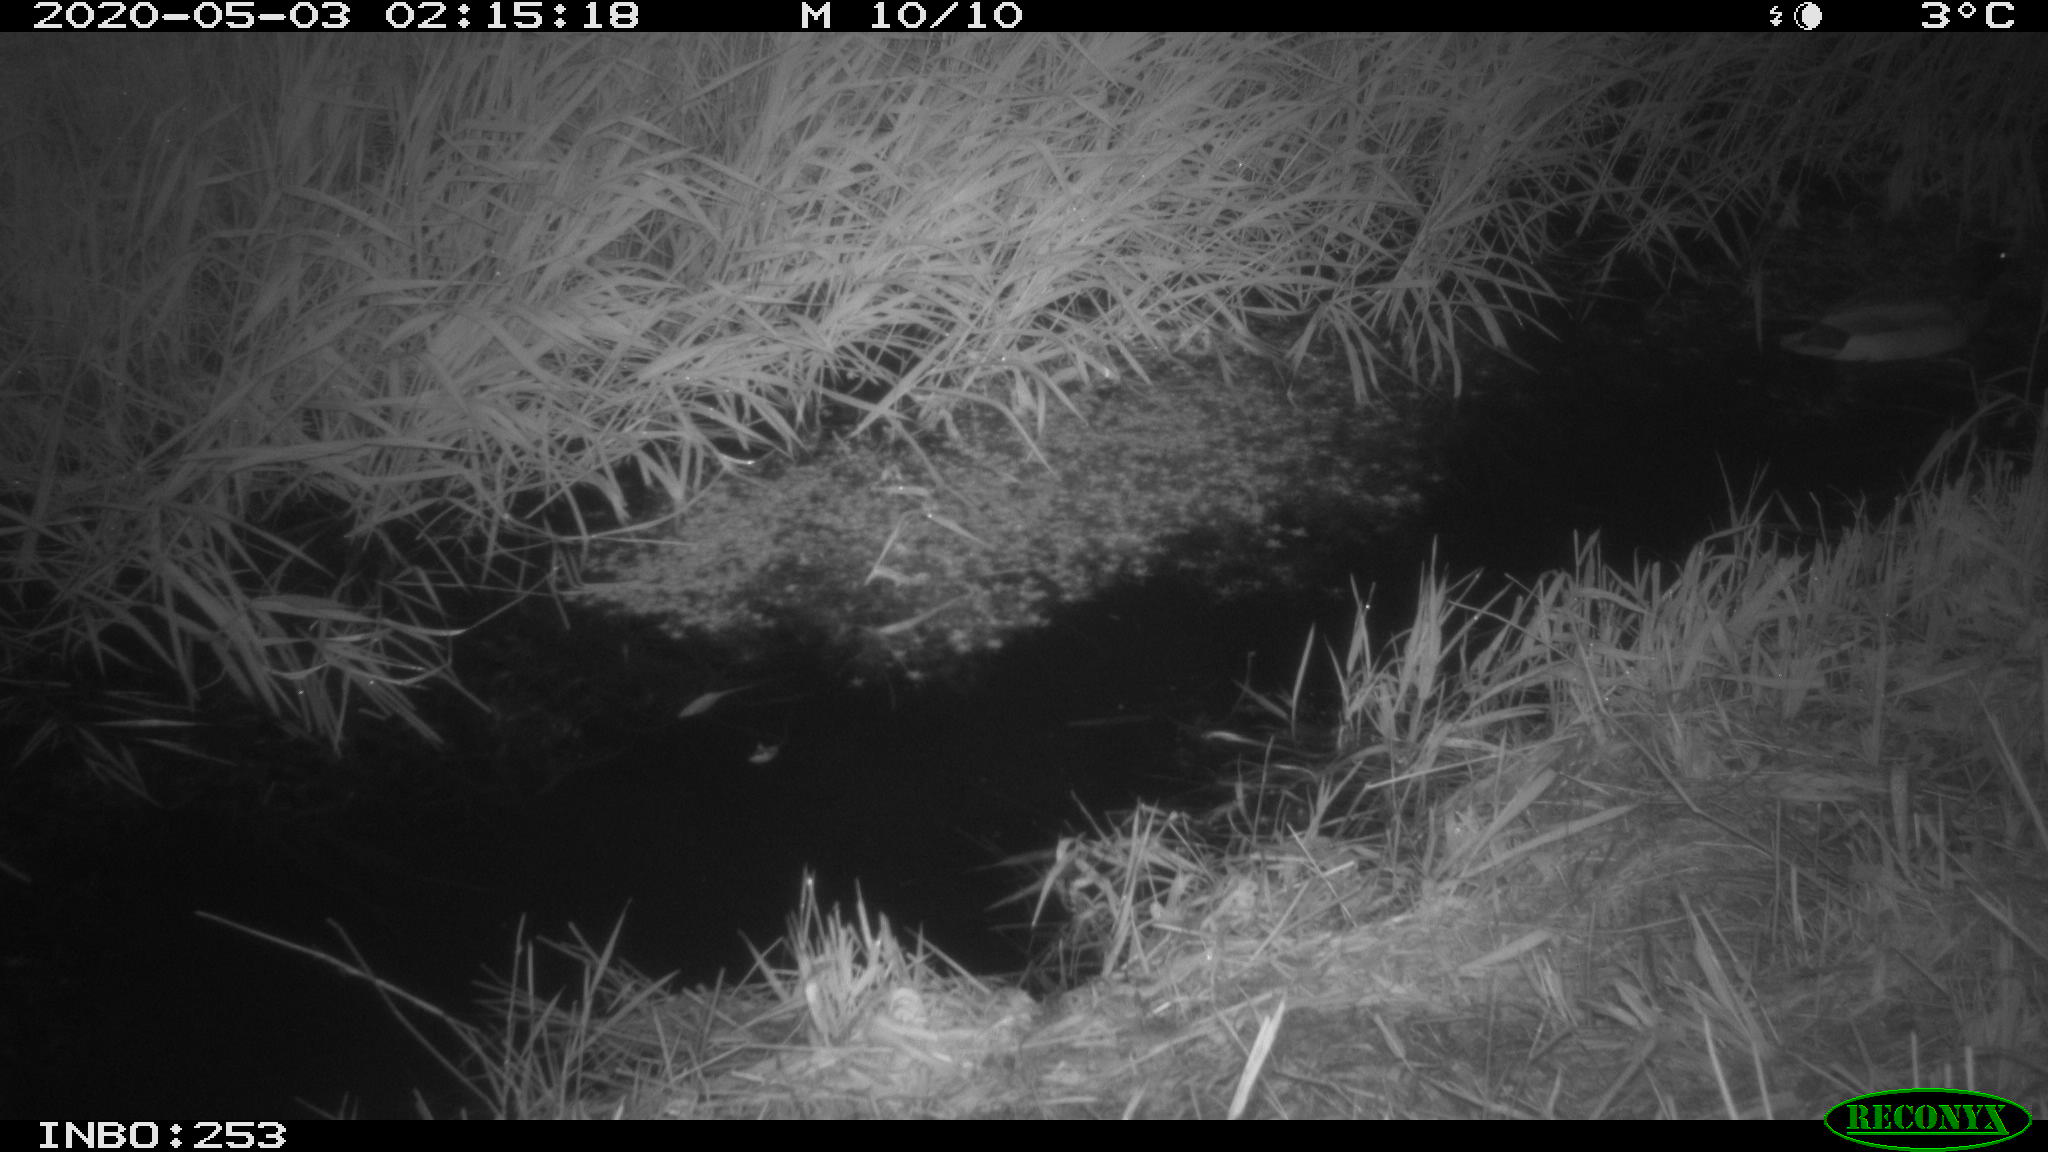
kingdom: Animalia
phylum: Chordata
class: Aves
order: Anseriformes
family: Anatidae
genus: Anas
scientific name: Anas platyrhynchos
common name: Mallard
